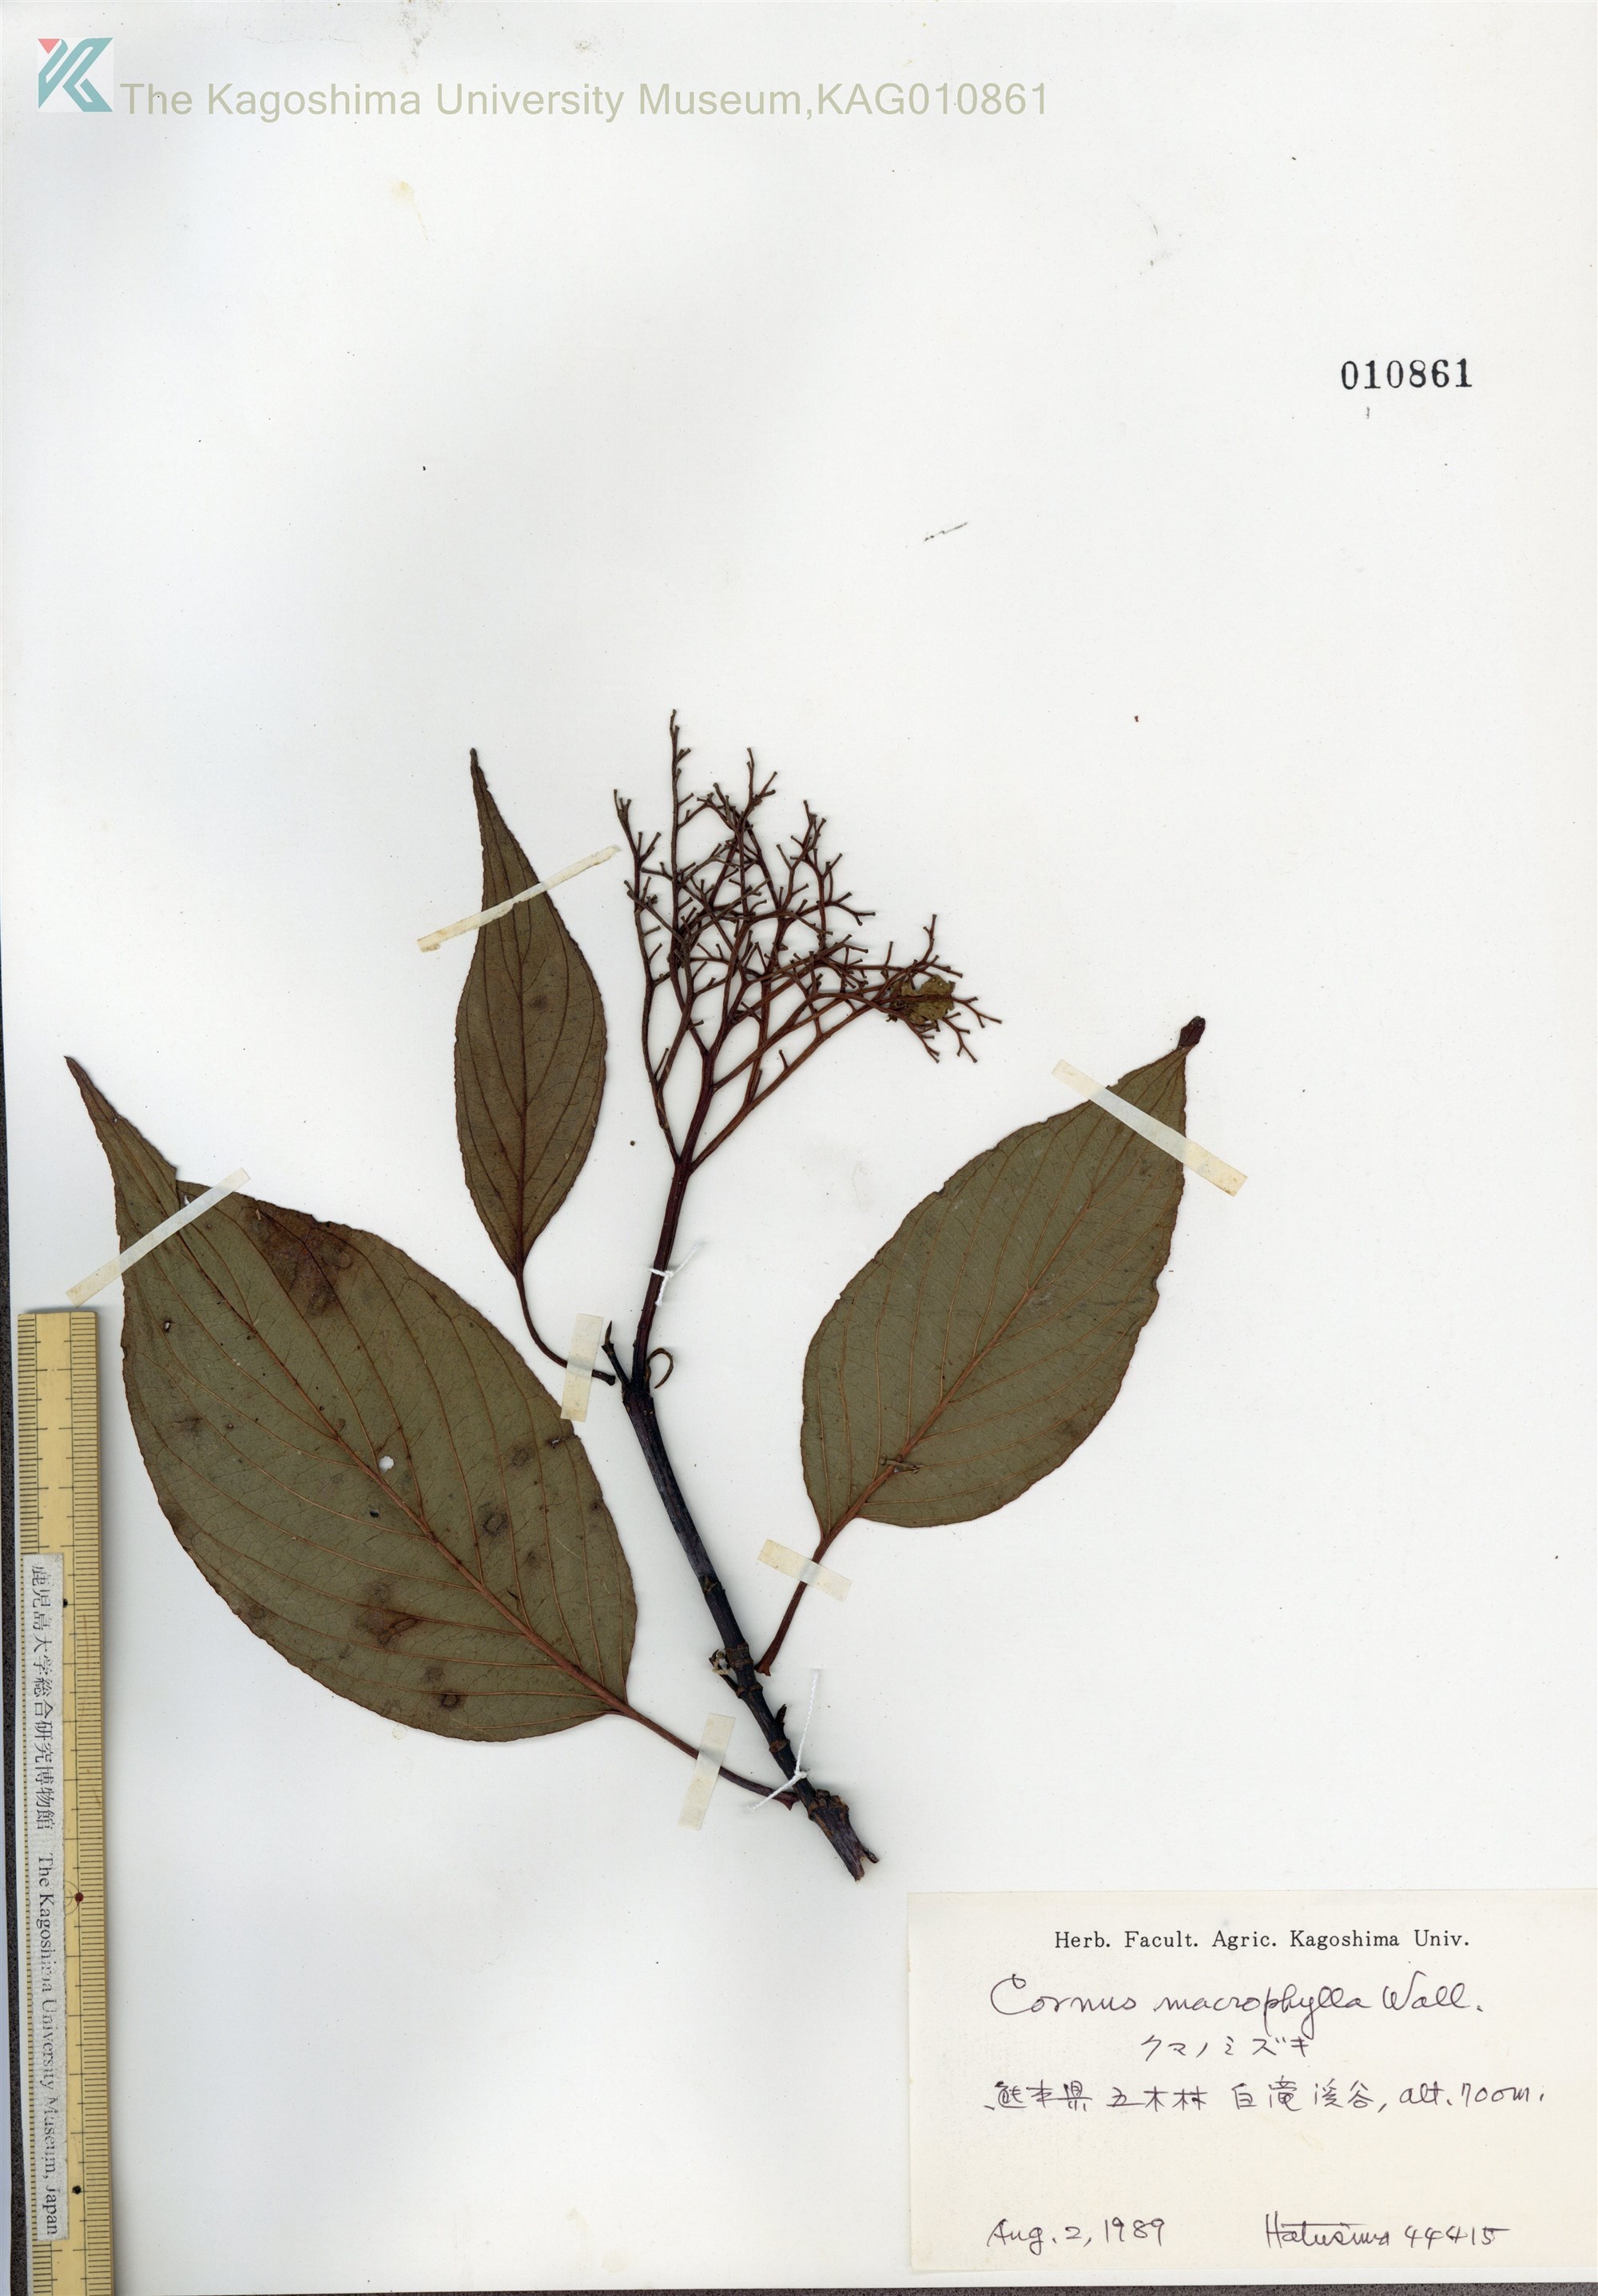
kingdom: Plantae
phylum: Tracheophyta
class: Magnoliopsida
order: Cornales
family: Cornaceae
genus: Cornus
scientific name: Cornus macrophylla
